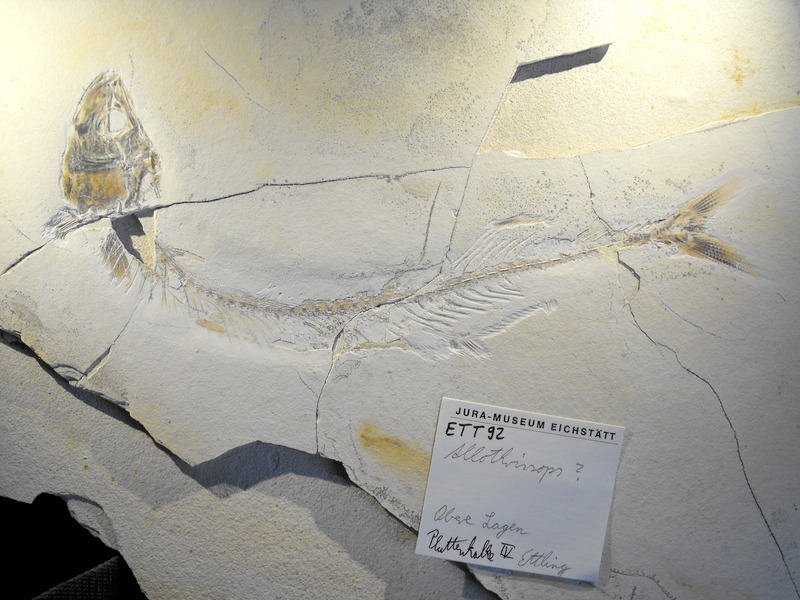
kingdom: Animalia
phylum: Chordata
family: Allothrissopidae
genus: Allothrissops
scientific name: Allothrissops mesogaster
